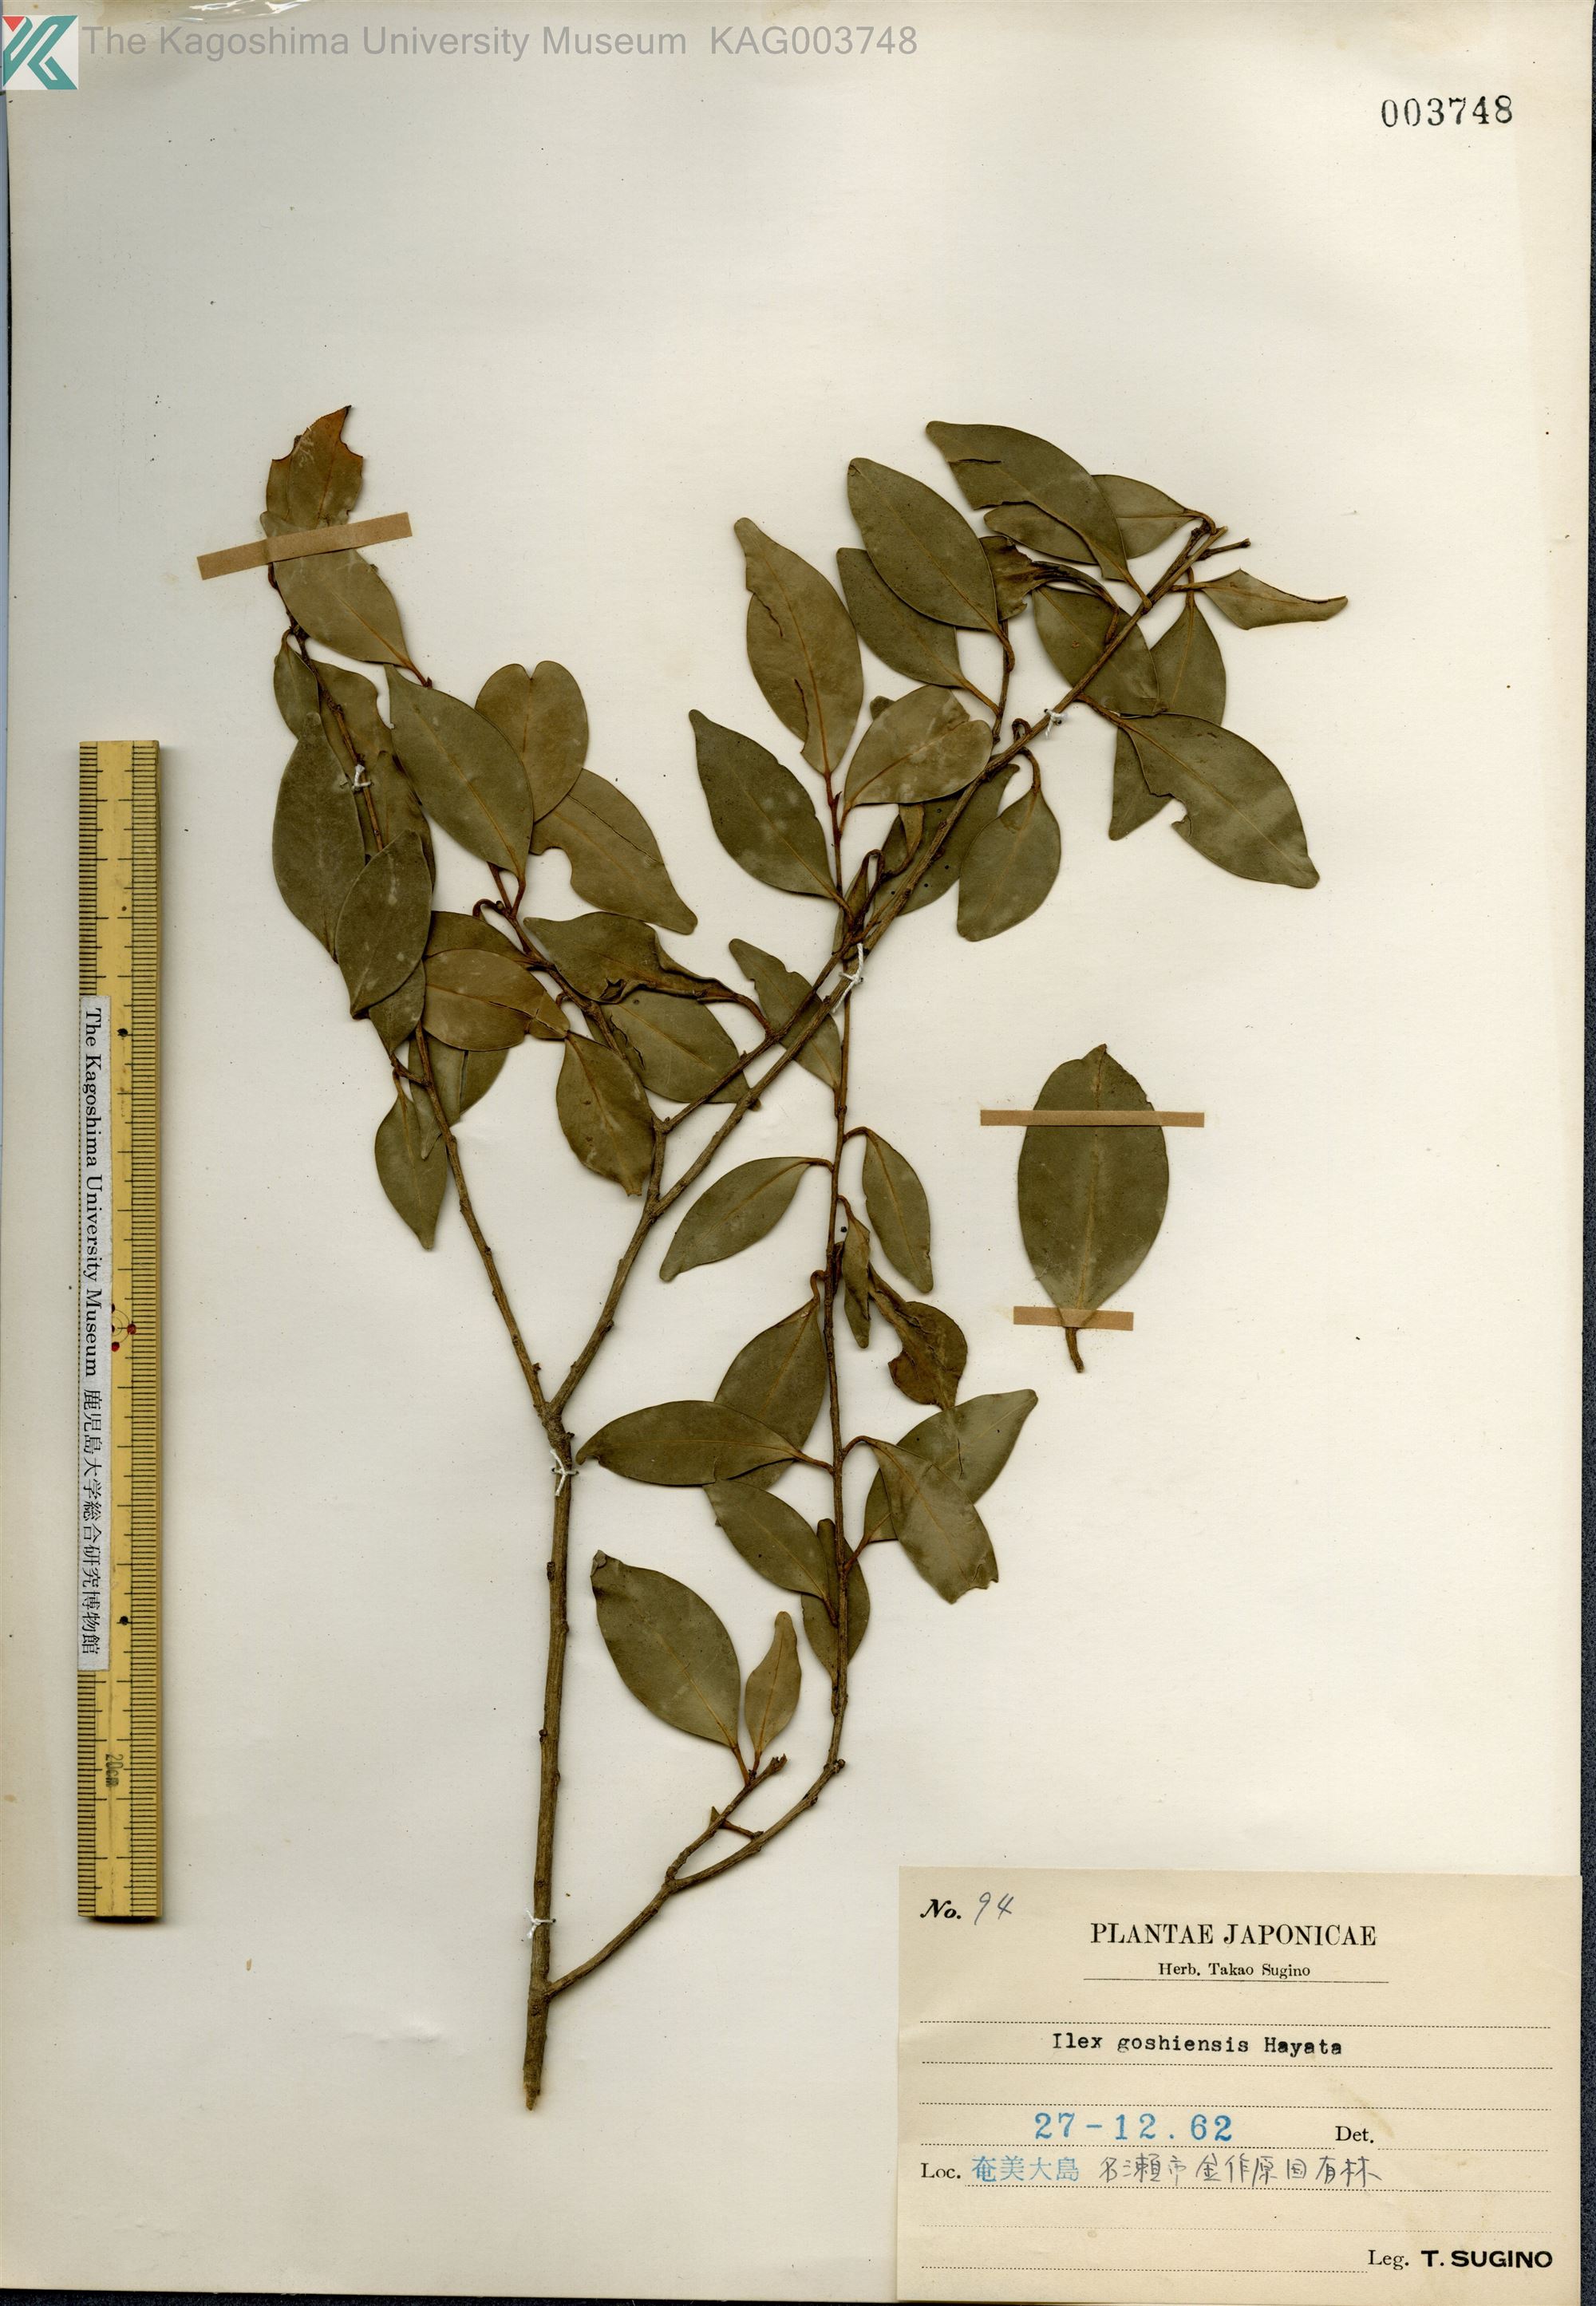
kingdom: Plantae
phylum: Tracheophyta
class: Magnoliopsida
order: Aquifoliales
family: Aquifoliaceae
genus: Ilex
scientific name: Ilex goshiensis
